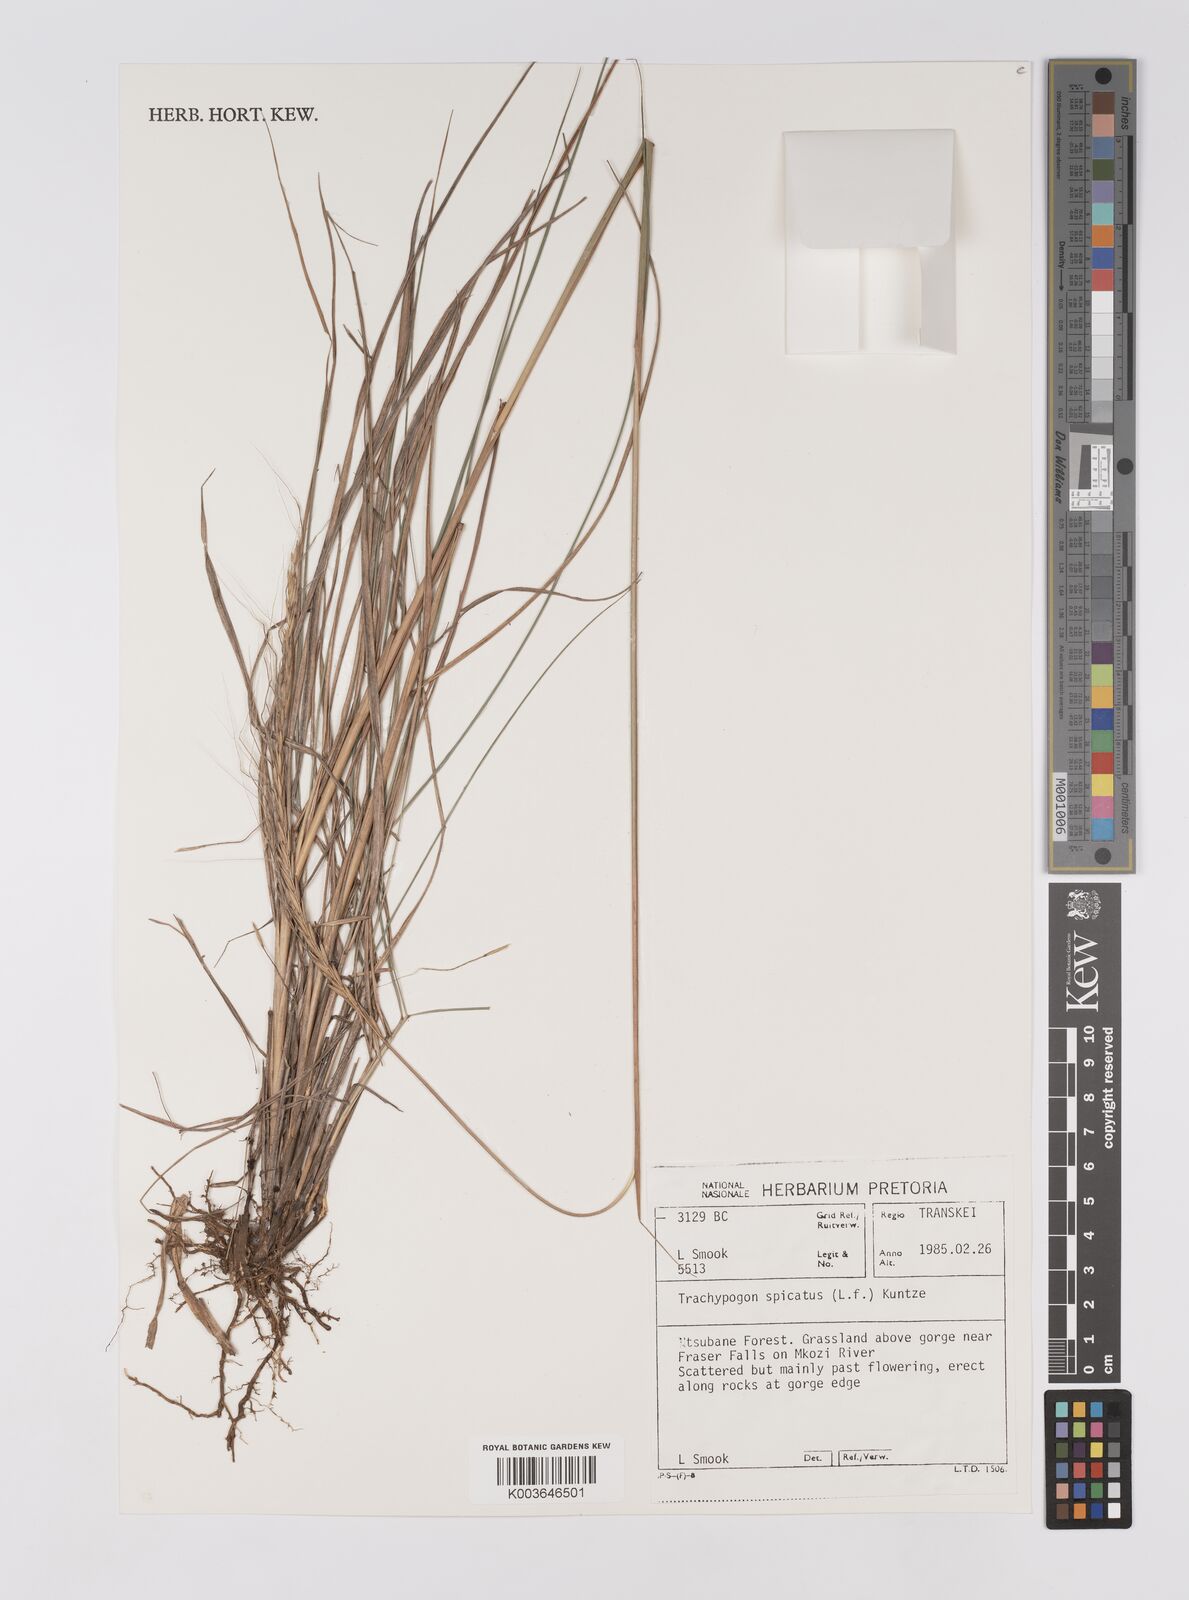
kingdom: Plantae
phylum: Tracheophyta
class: Liliopsida
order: Poales
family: Poaceae
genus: Trachypogon
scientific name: Trachypogon spicatus
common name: Crinkle-awn
